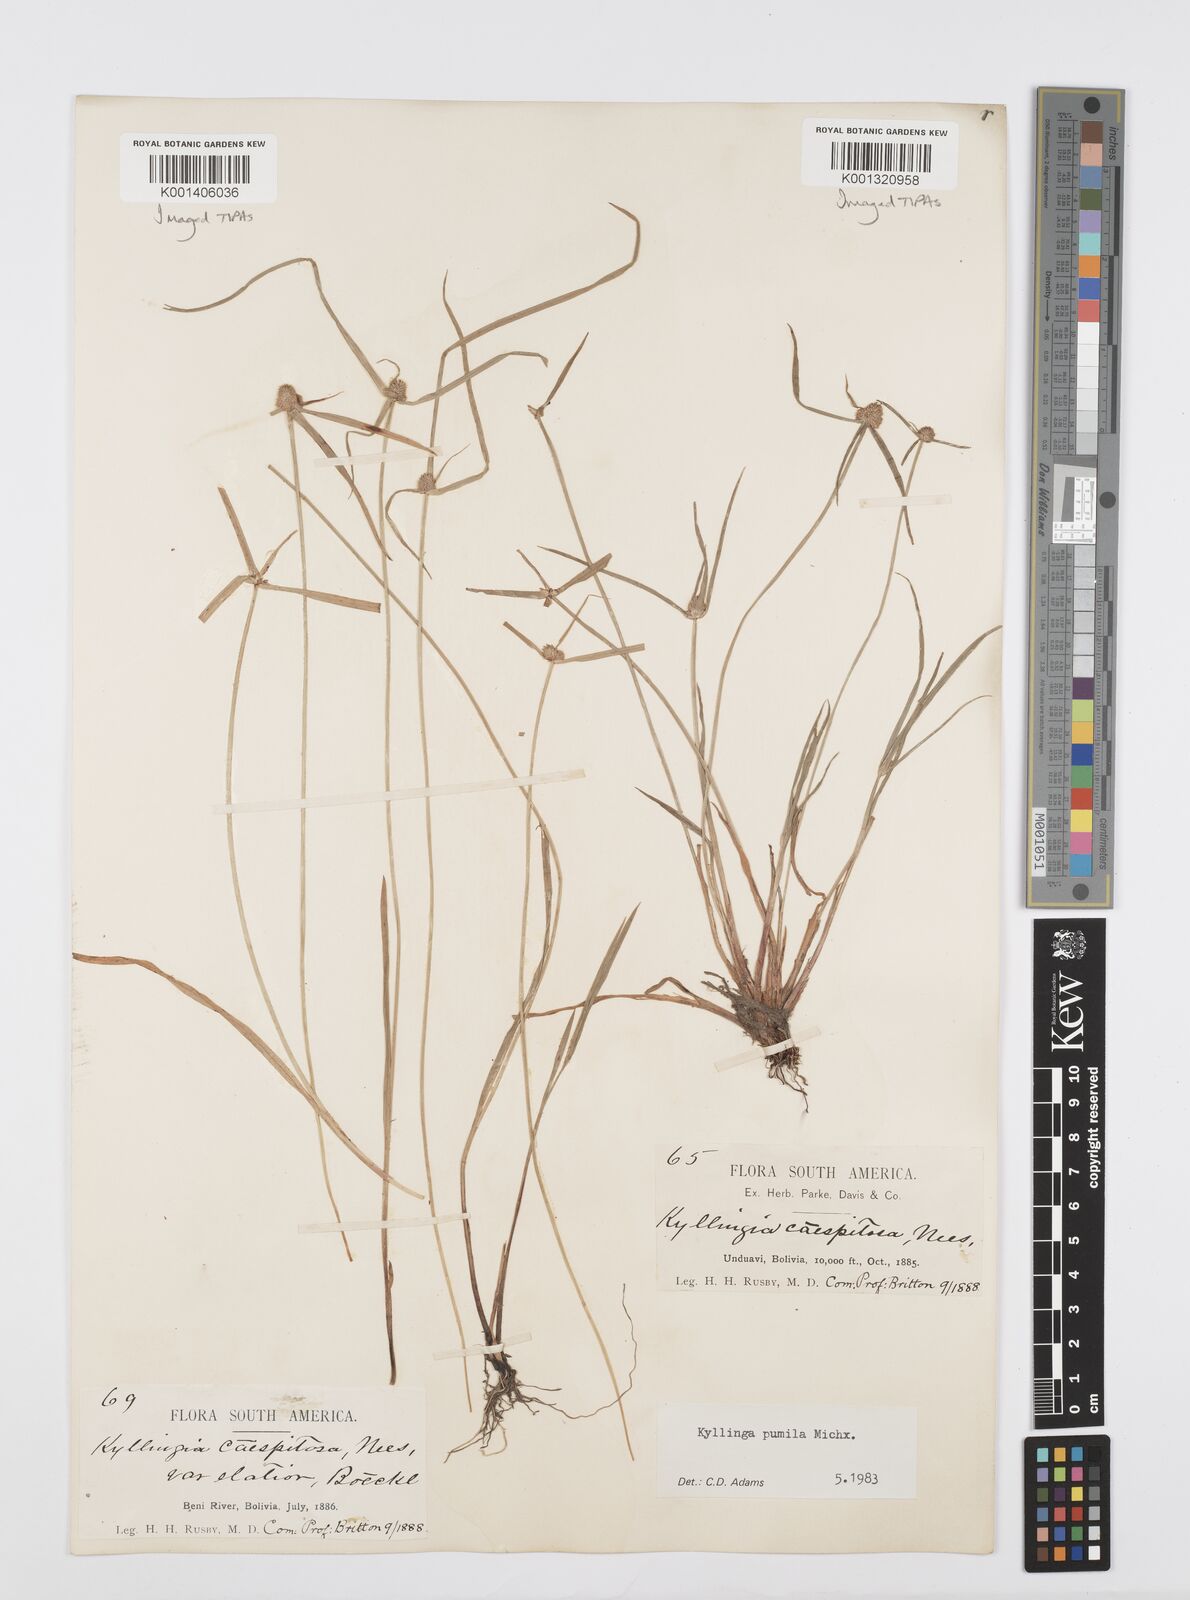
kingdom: Plantae
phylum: Tracheophyta
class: Liliopsida
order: Poales
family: Cyperaceae
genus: Cyperus
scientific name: Cyperus
